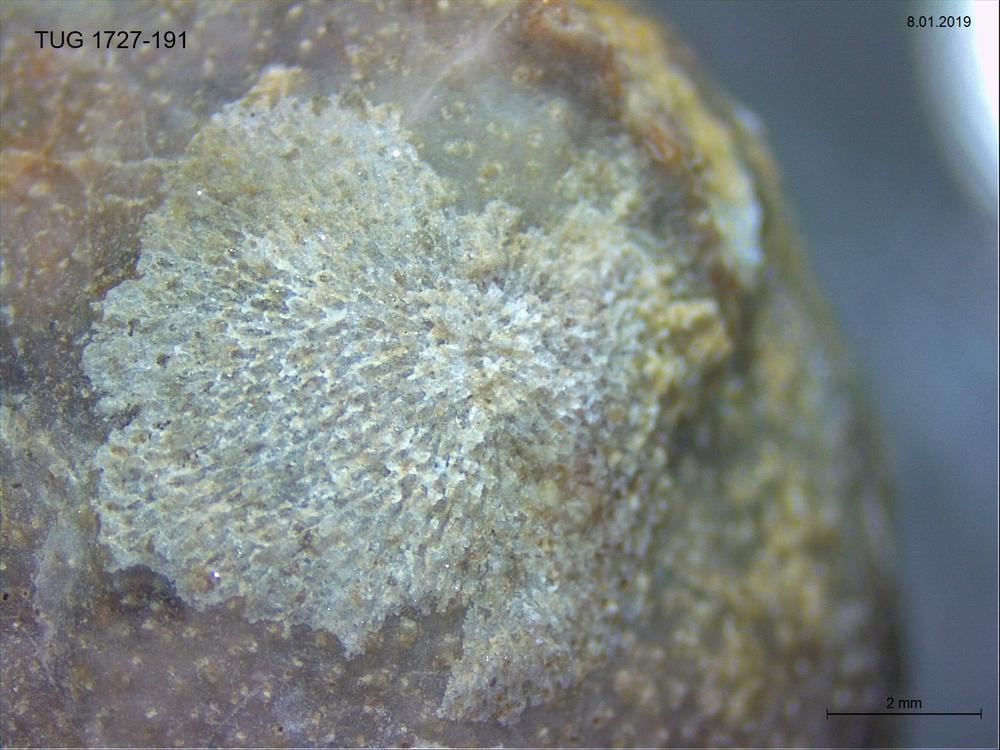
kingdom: Animalia
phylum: Bryozoa
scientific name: Bryozoa
